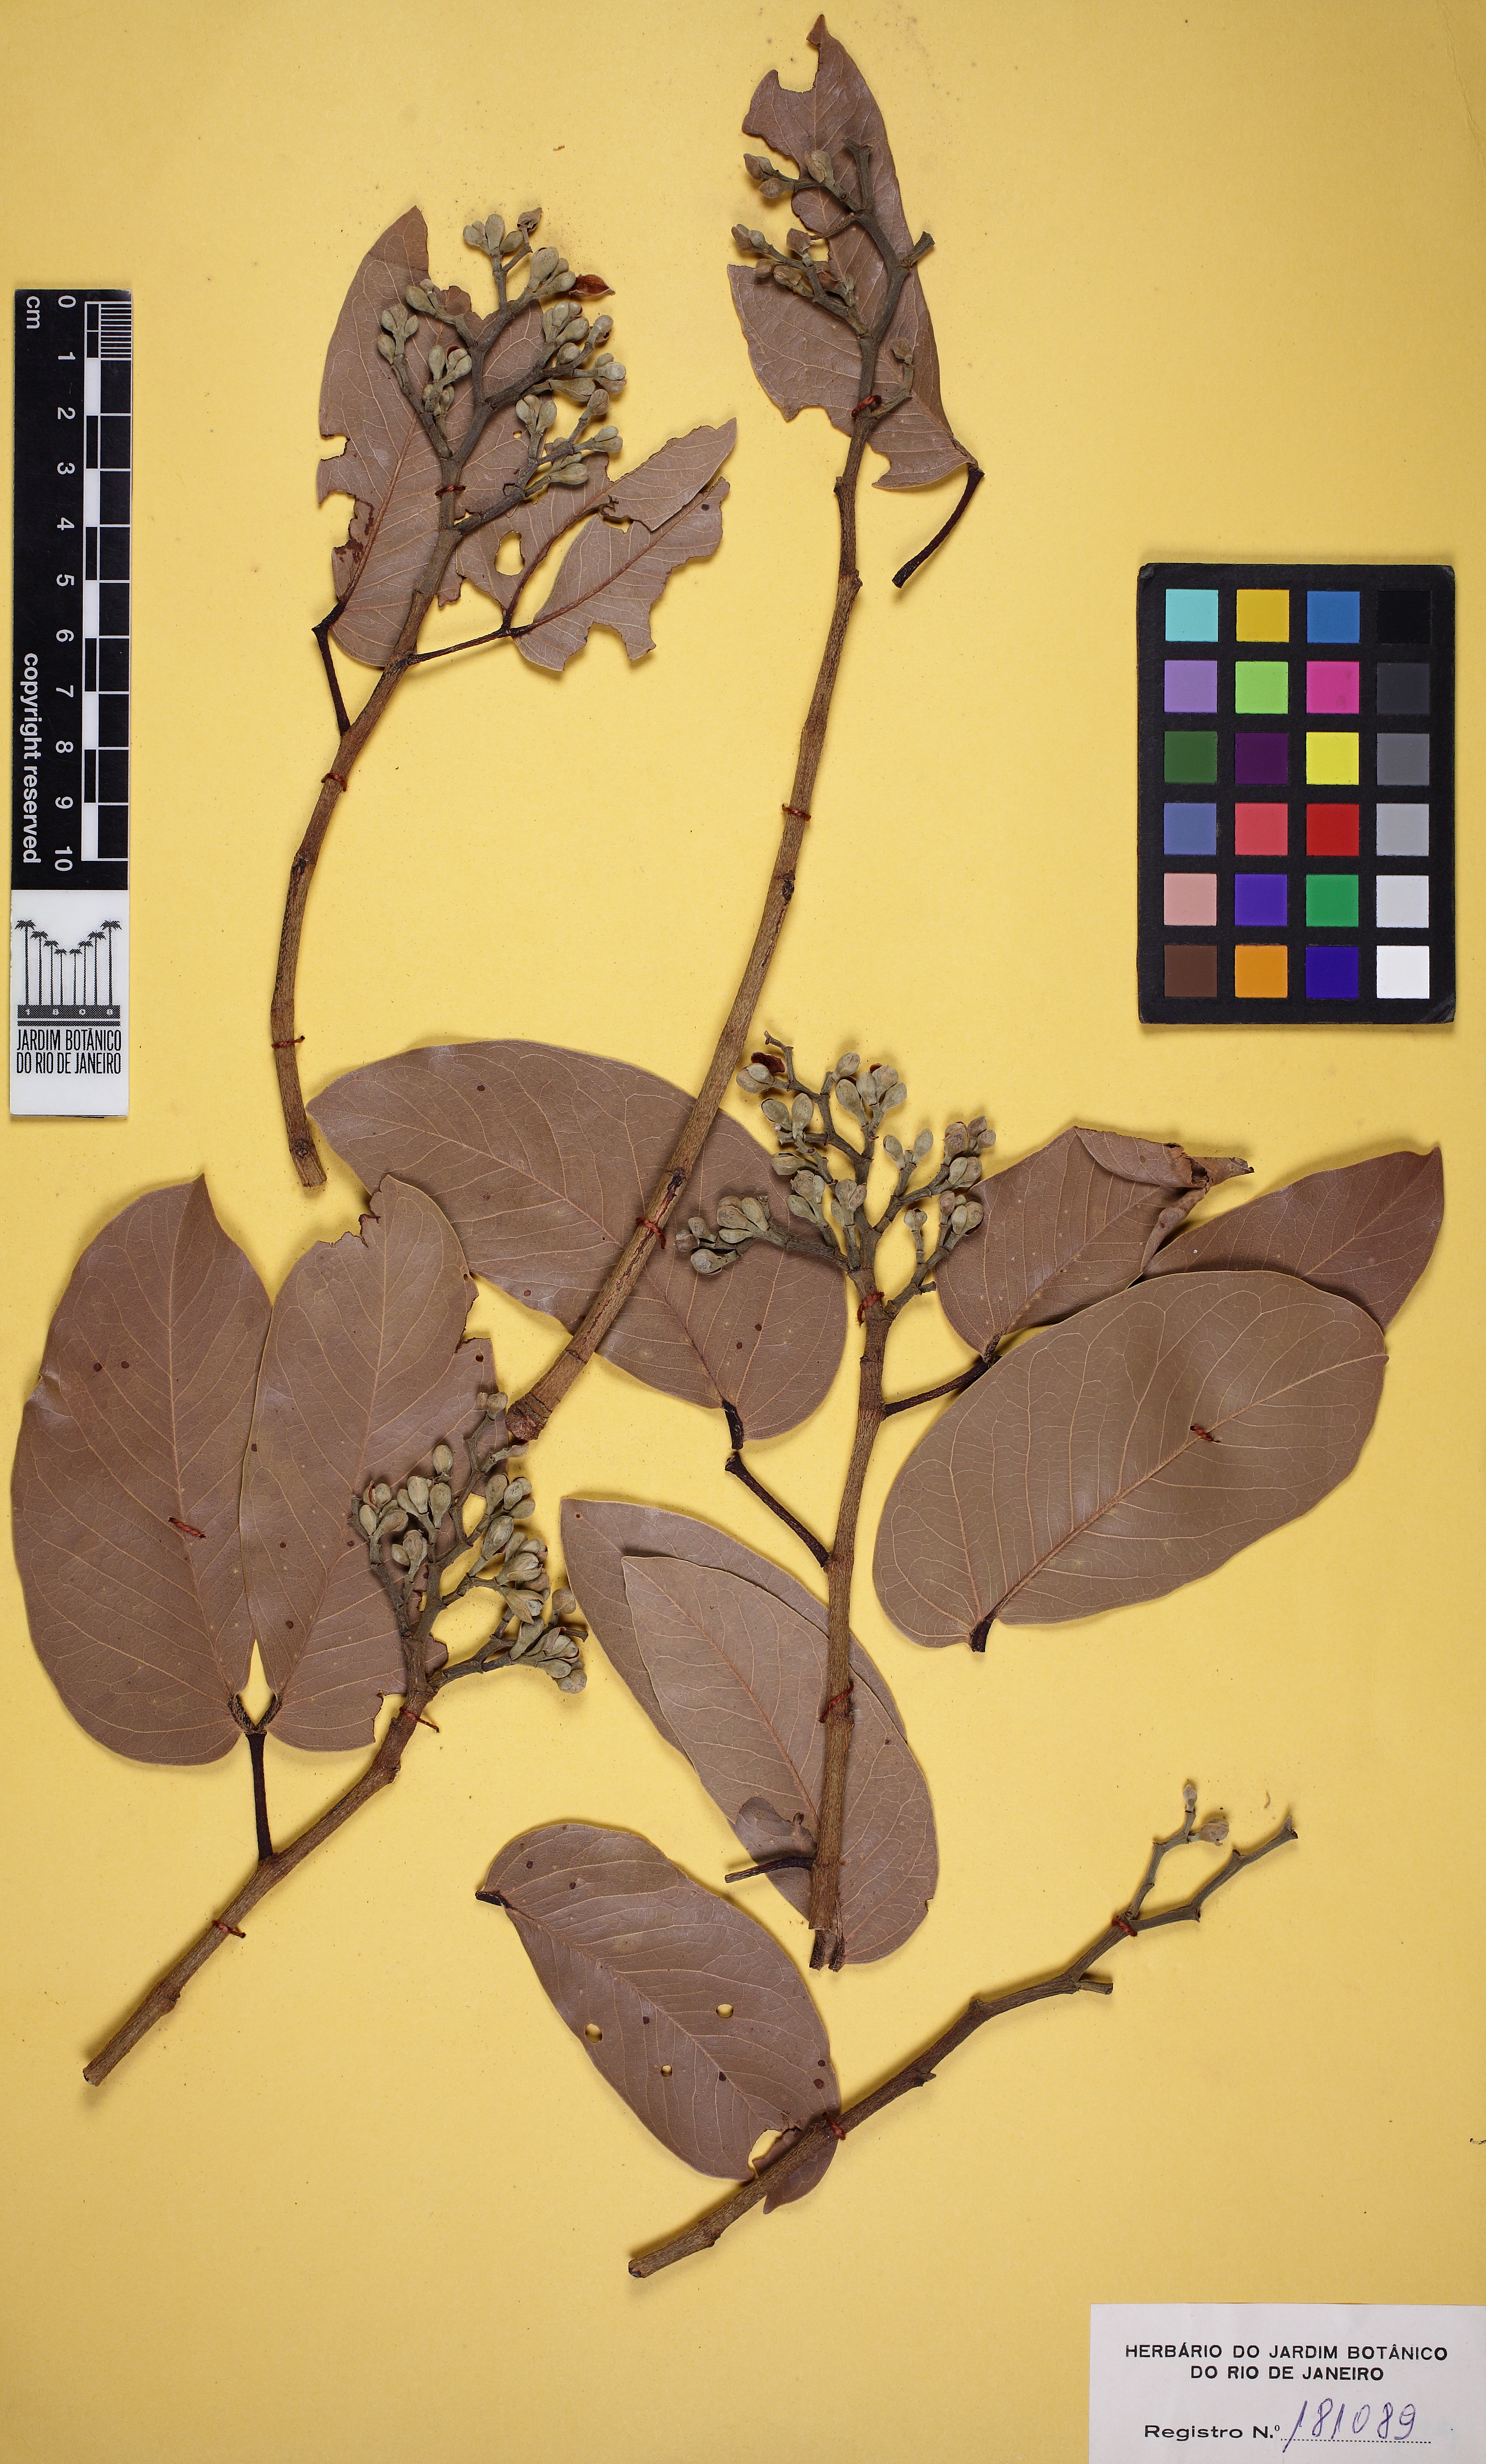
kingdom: Plantae
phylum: Tracheophyta
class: Magnoliopsida
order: Fabales
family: Fabaceae
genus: Hymenaea
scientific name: Hymenaea courbaril
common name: Brazilian copal
